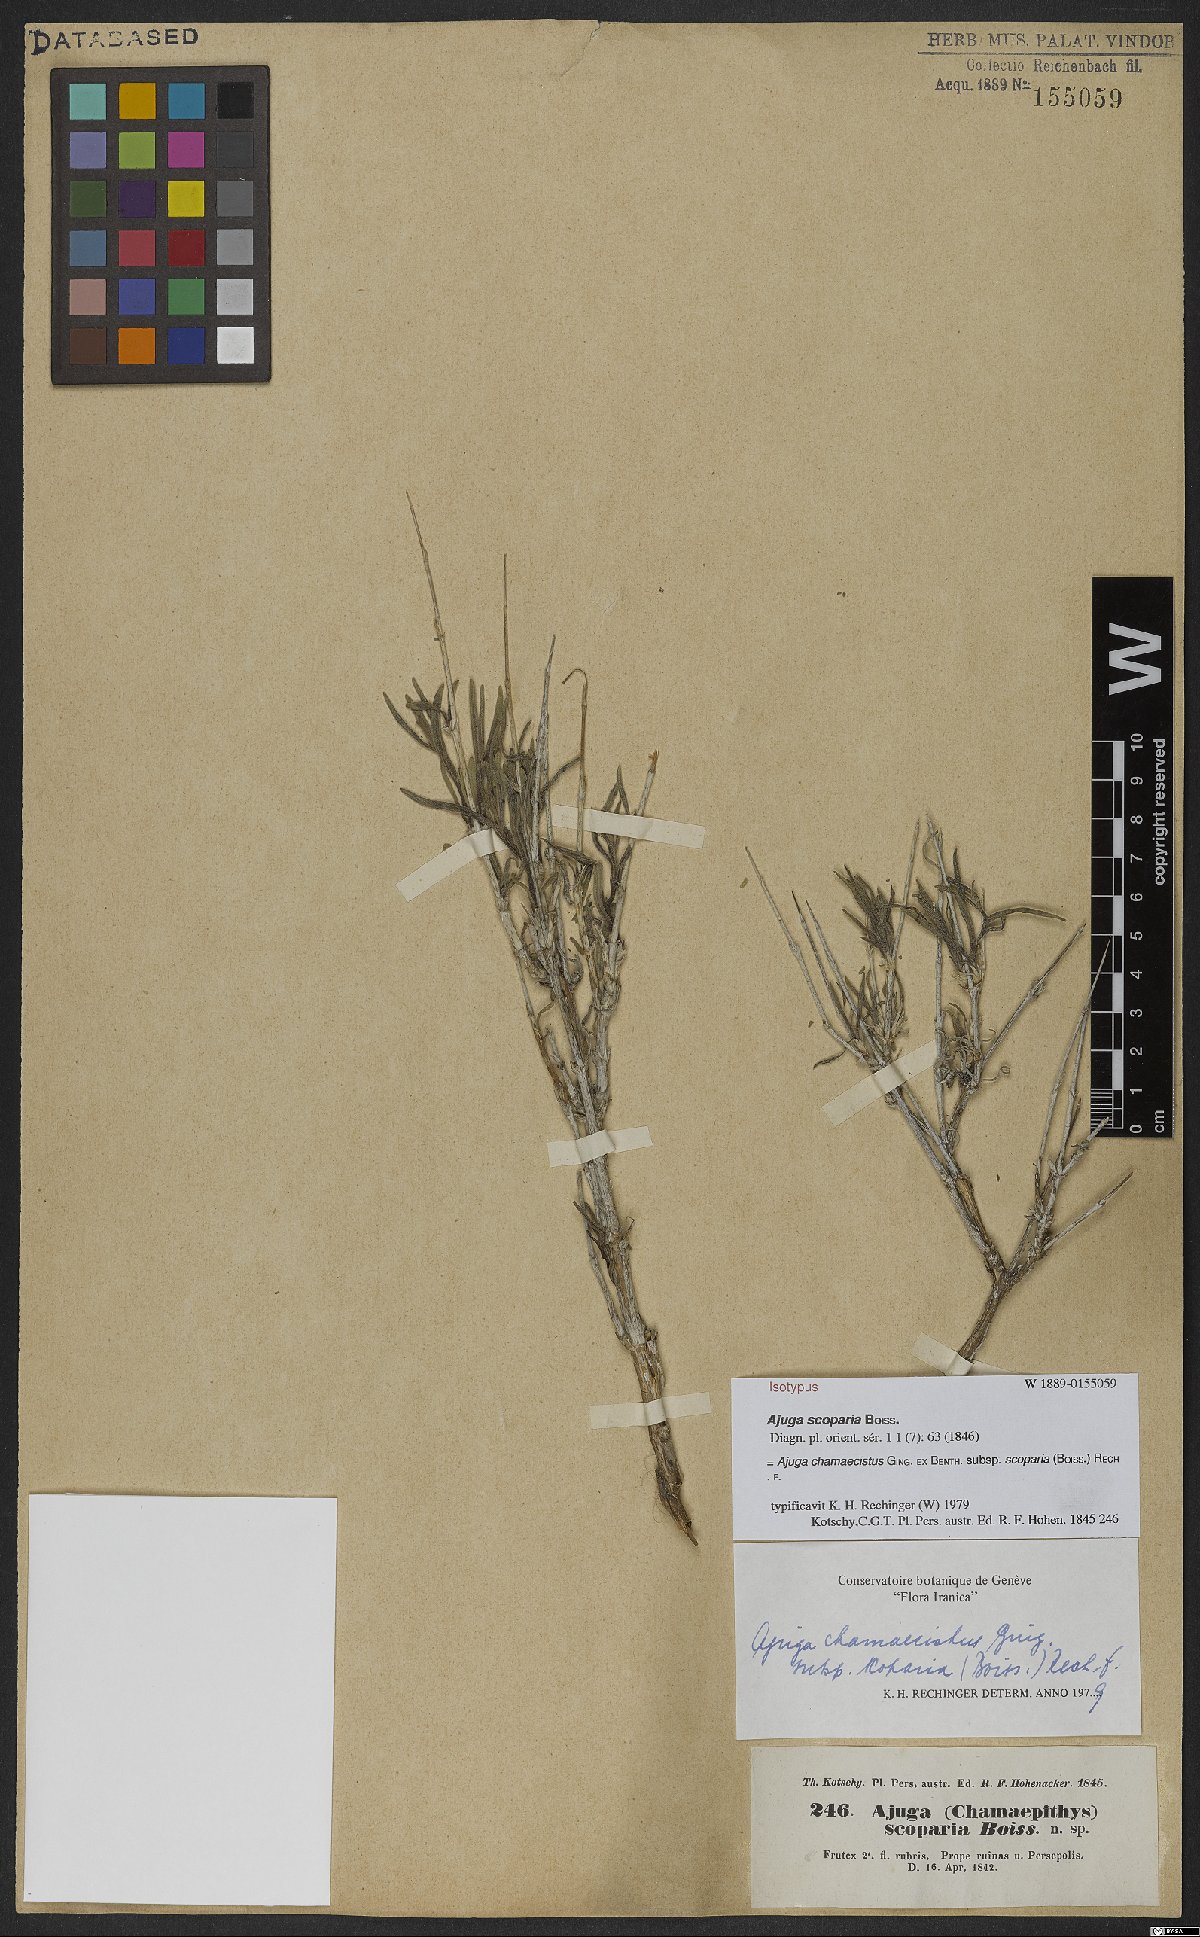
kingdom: Plantae
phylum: Tracheophyta
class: Magnoliopsida
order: Lamiales
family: Lamiaceae
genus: Ajuga
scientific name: Ajuga chamaecistus
